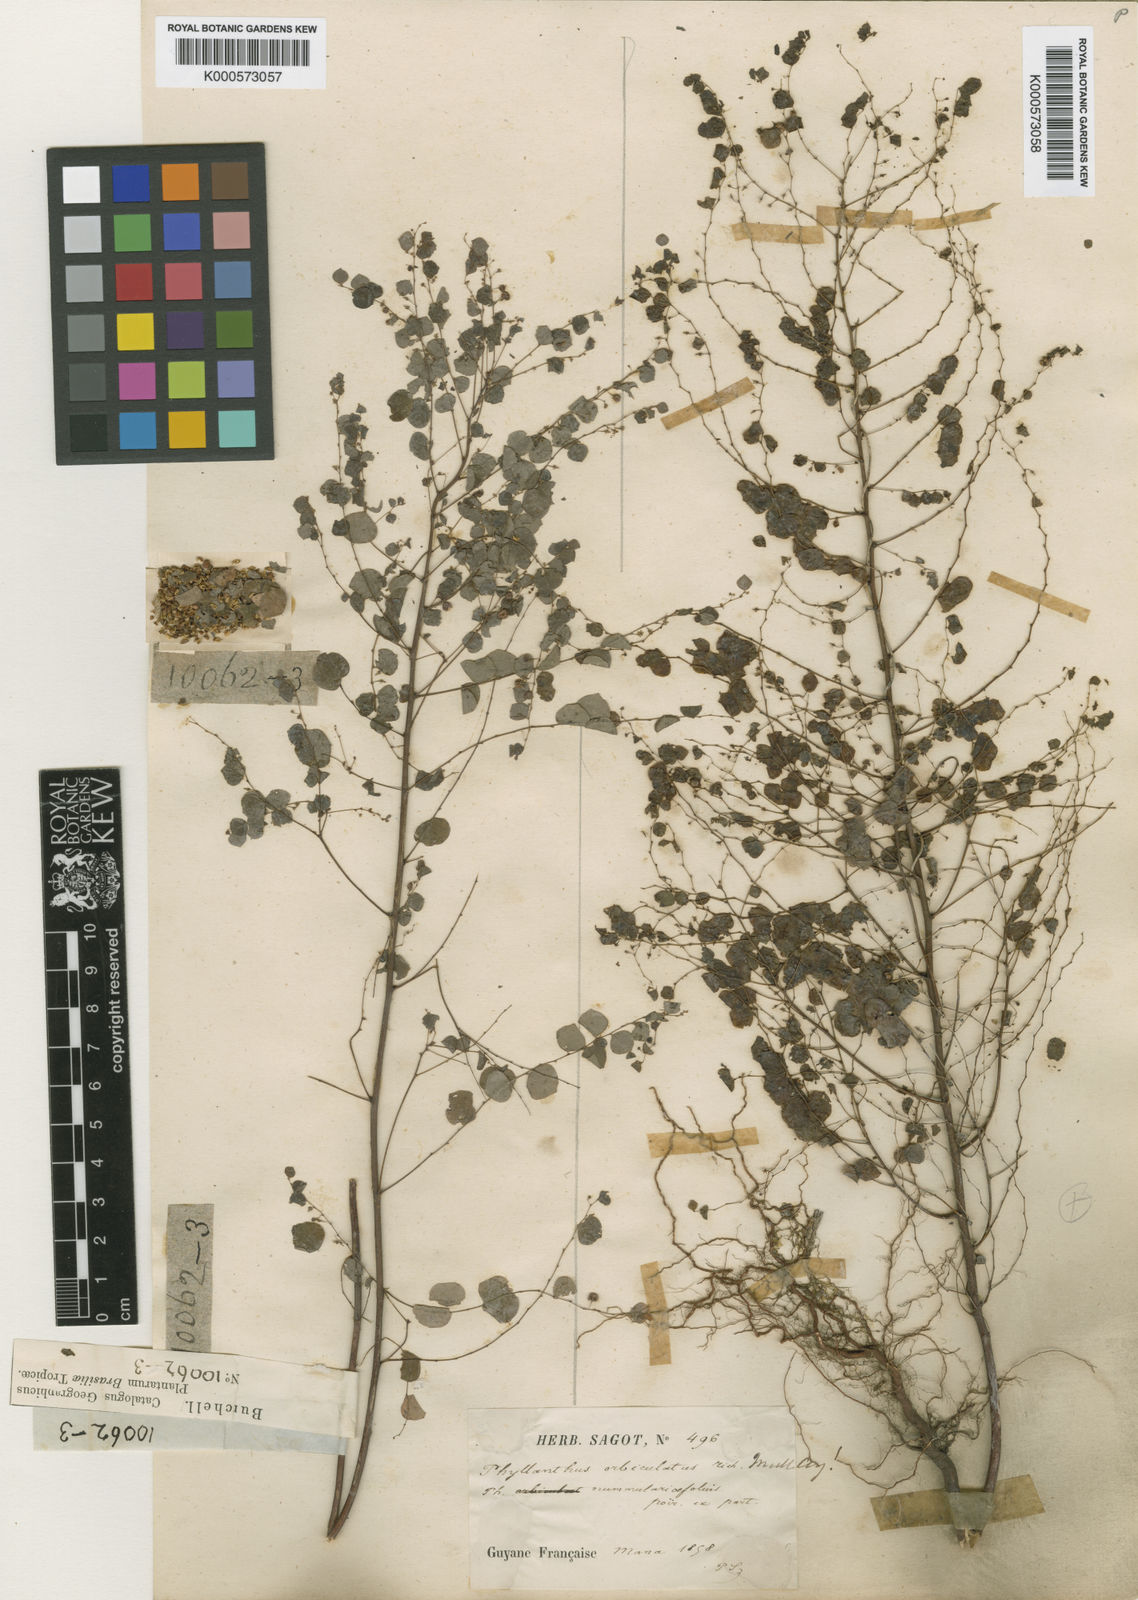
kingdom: Plantae
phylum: Tracheophyta
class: Magnoliopsida
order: Malpighiales
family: Phyllanthaceae
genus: Phyllanthus
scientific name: Phyllanthus orbiculatus
